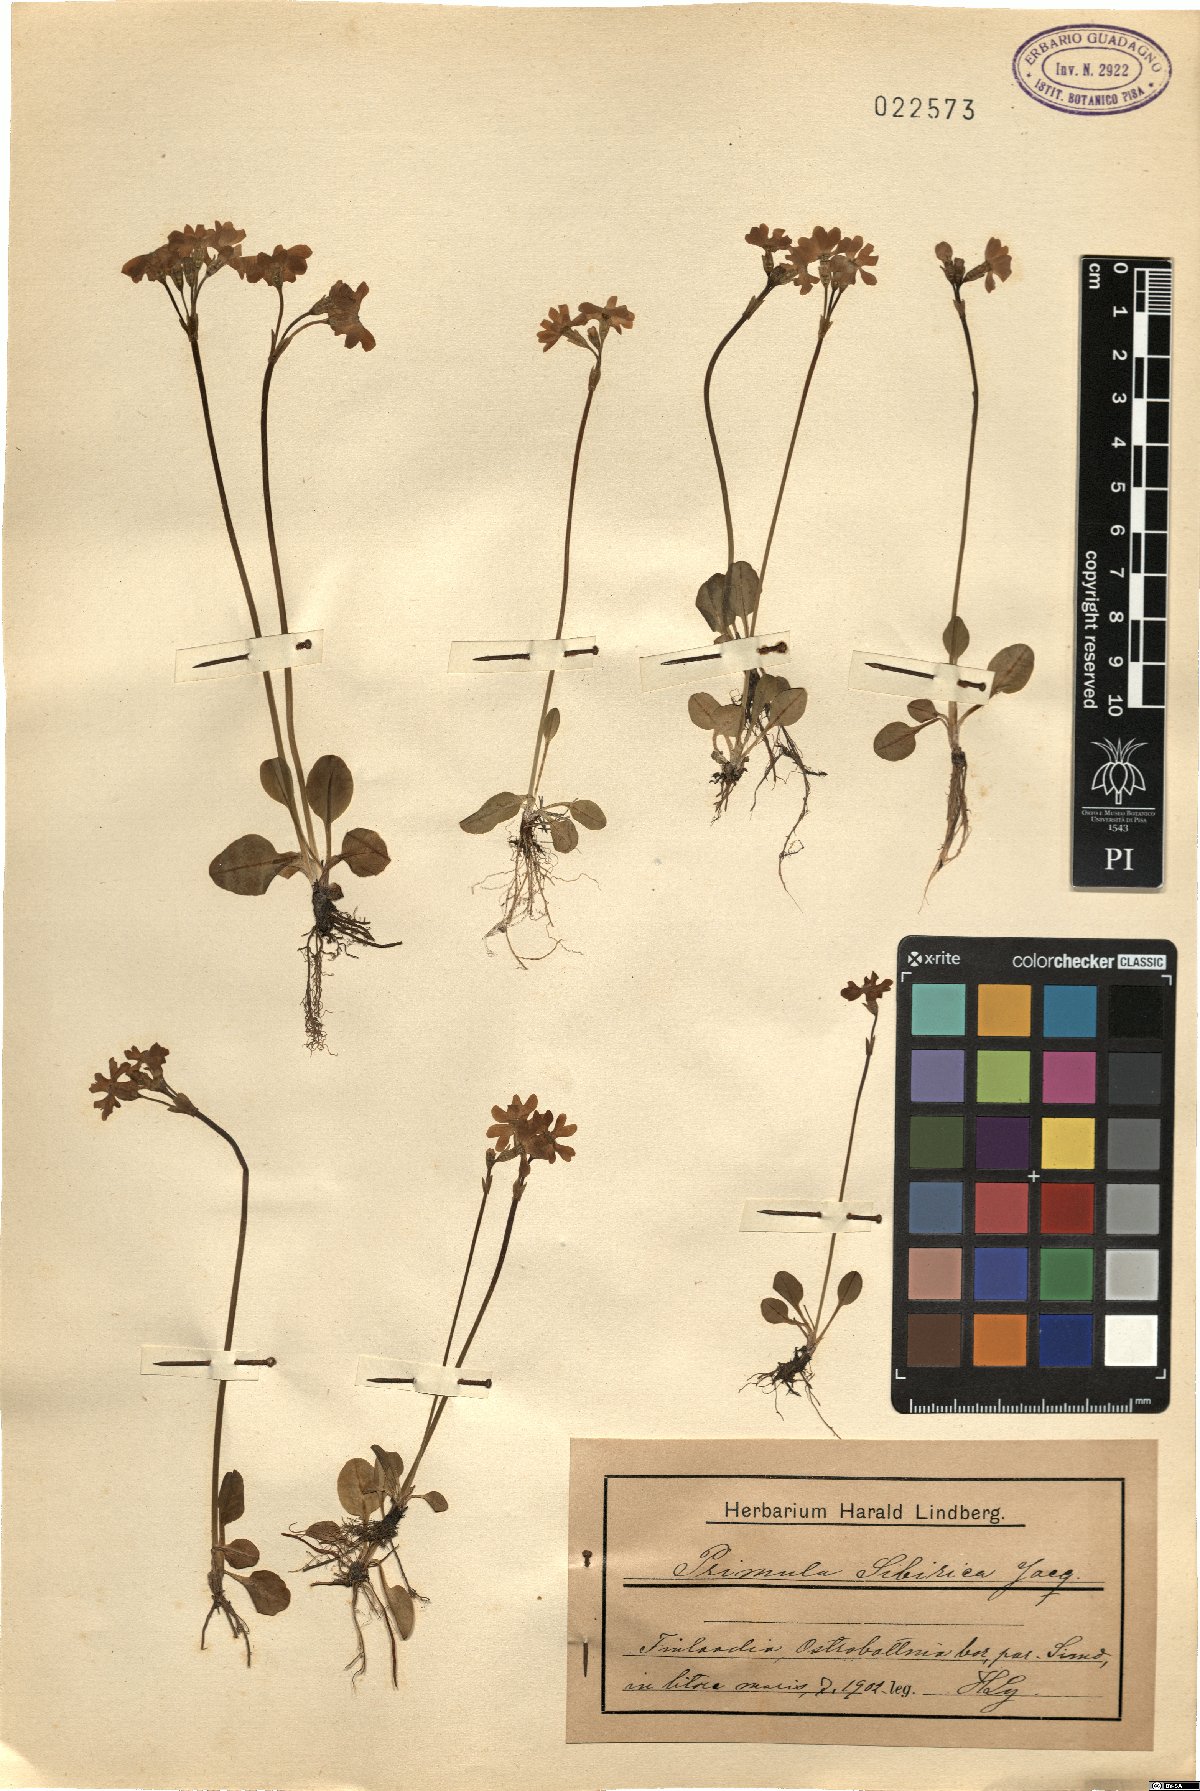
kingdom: Plantae
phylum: Tracheophyta
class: Magnoliopsida
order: Ericales
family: Primulaceae
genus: Primula
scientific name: Primula nutans
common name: Siberian primrose
